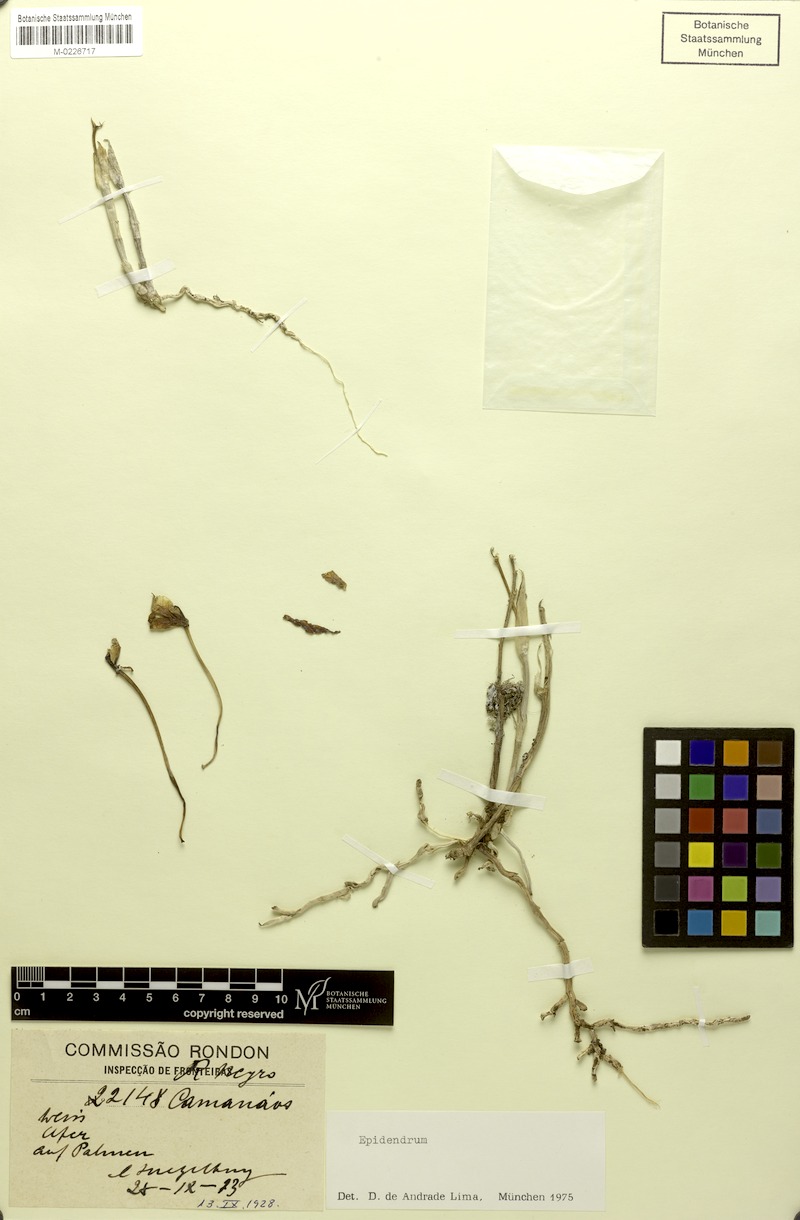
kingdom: Plantae
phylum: Tracheophyta
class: Liliopsida
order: Asparagales
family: Orchidaceae
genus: Epidendrum
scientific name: Epidendrum
